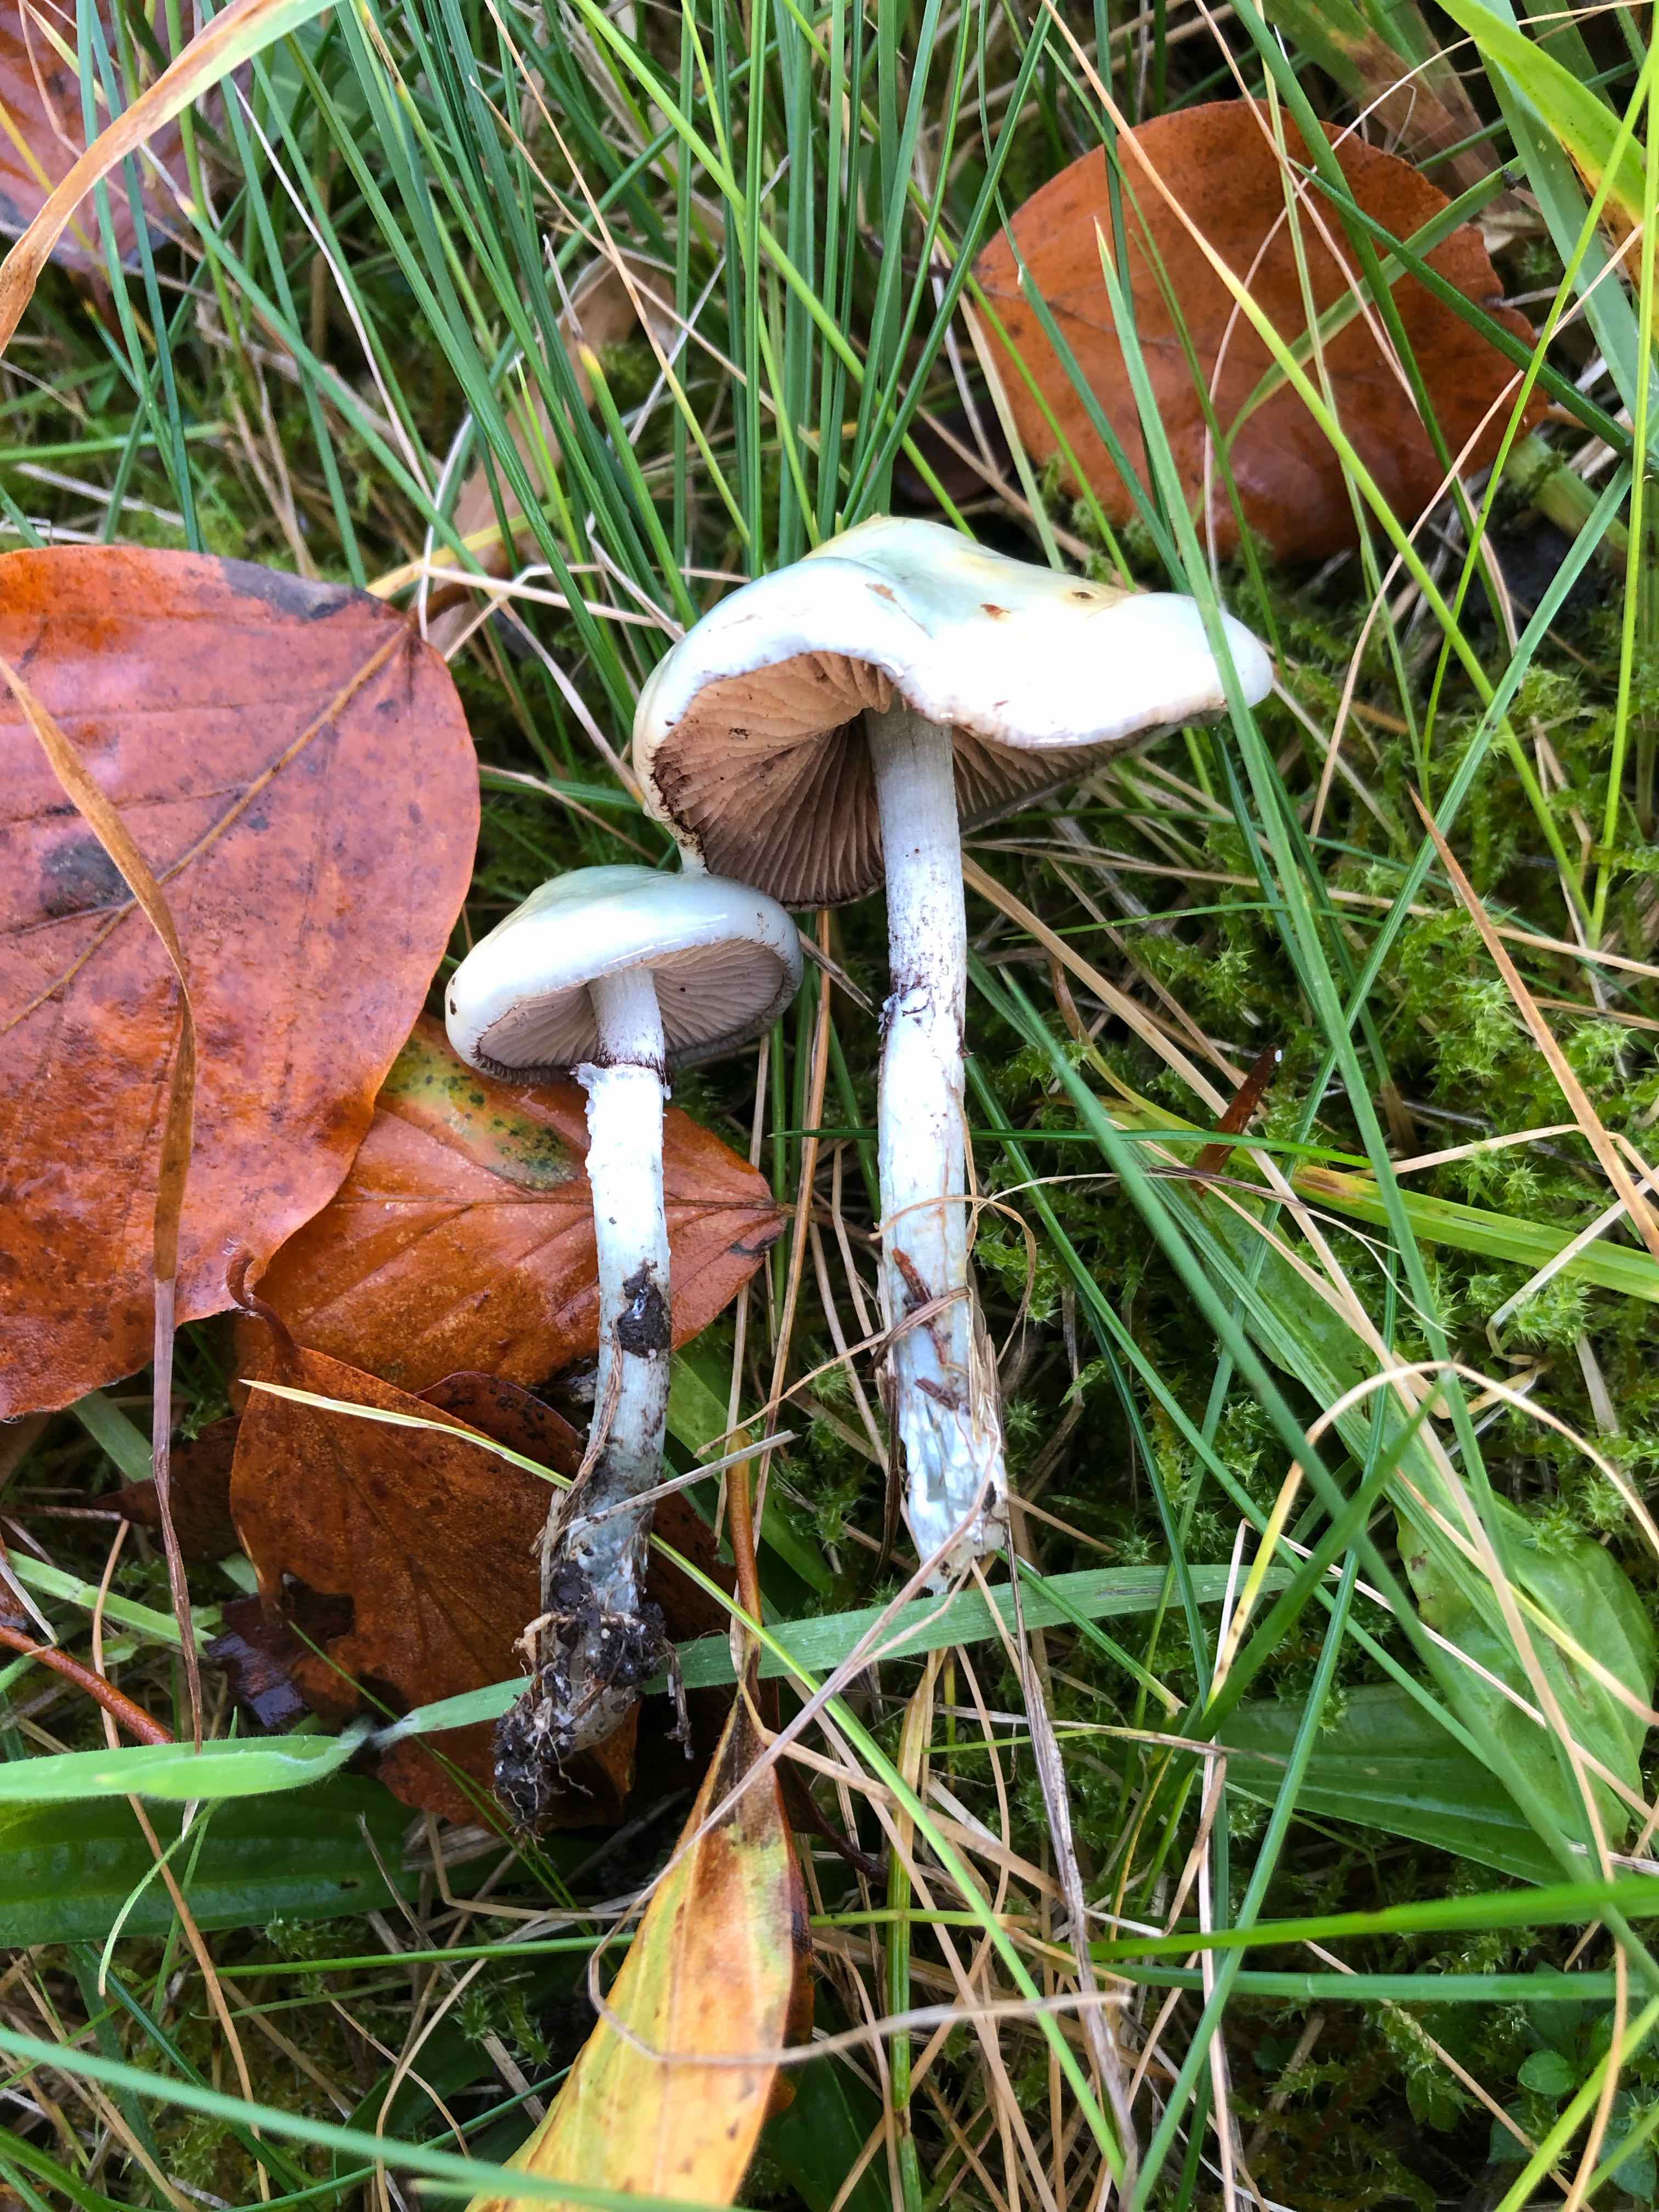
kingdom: Fungi
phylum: Basidiomycota
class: Agaricomycetes
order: Agaricales
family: Strophariaceae
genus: Stropharia
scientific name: Stropharia cyanea
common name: blågrøn bredblad
